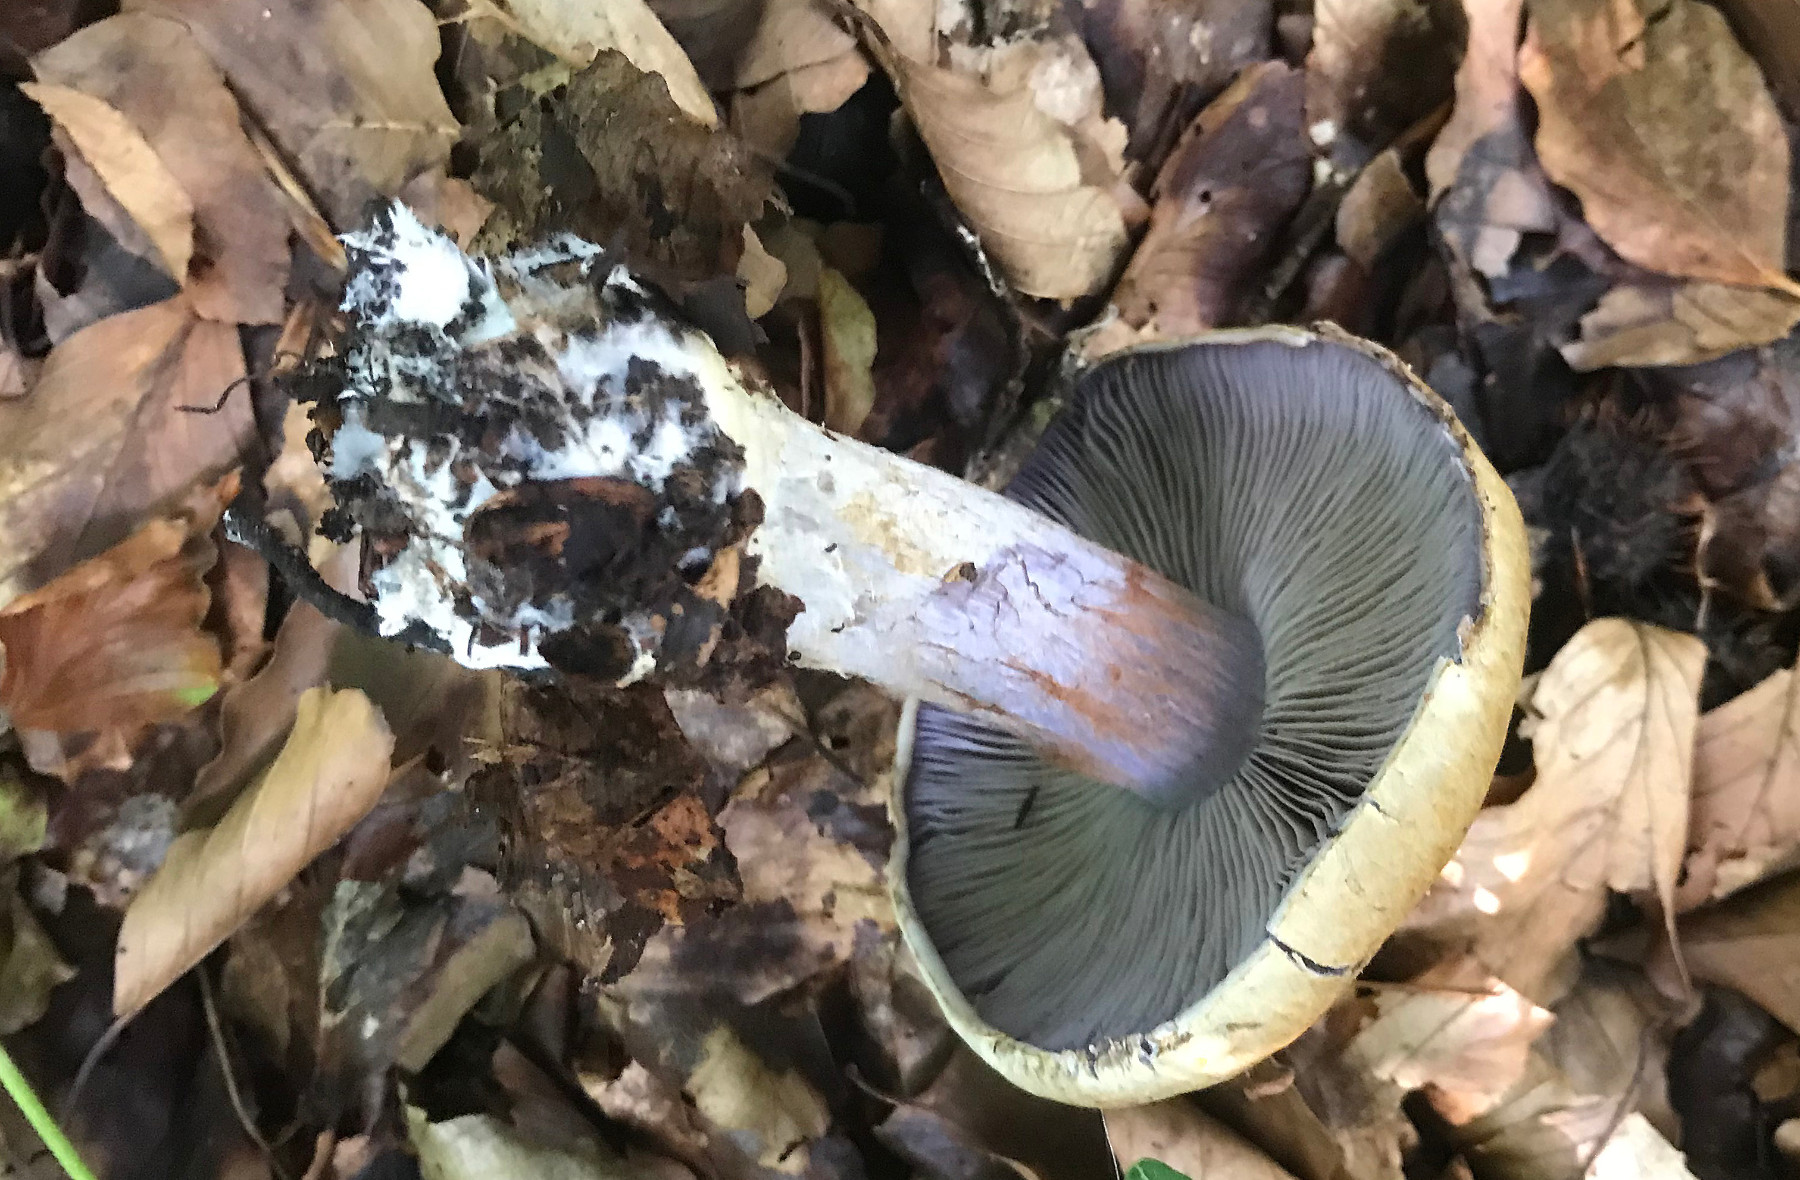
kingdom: Fungi
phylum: Basidiomycota
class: Agaricomycetes
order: Agaricales
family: Cortinariaceae
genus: Cortinarius
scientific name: Cortinarius anserinus
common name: bøge-slørhat
